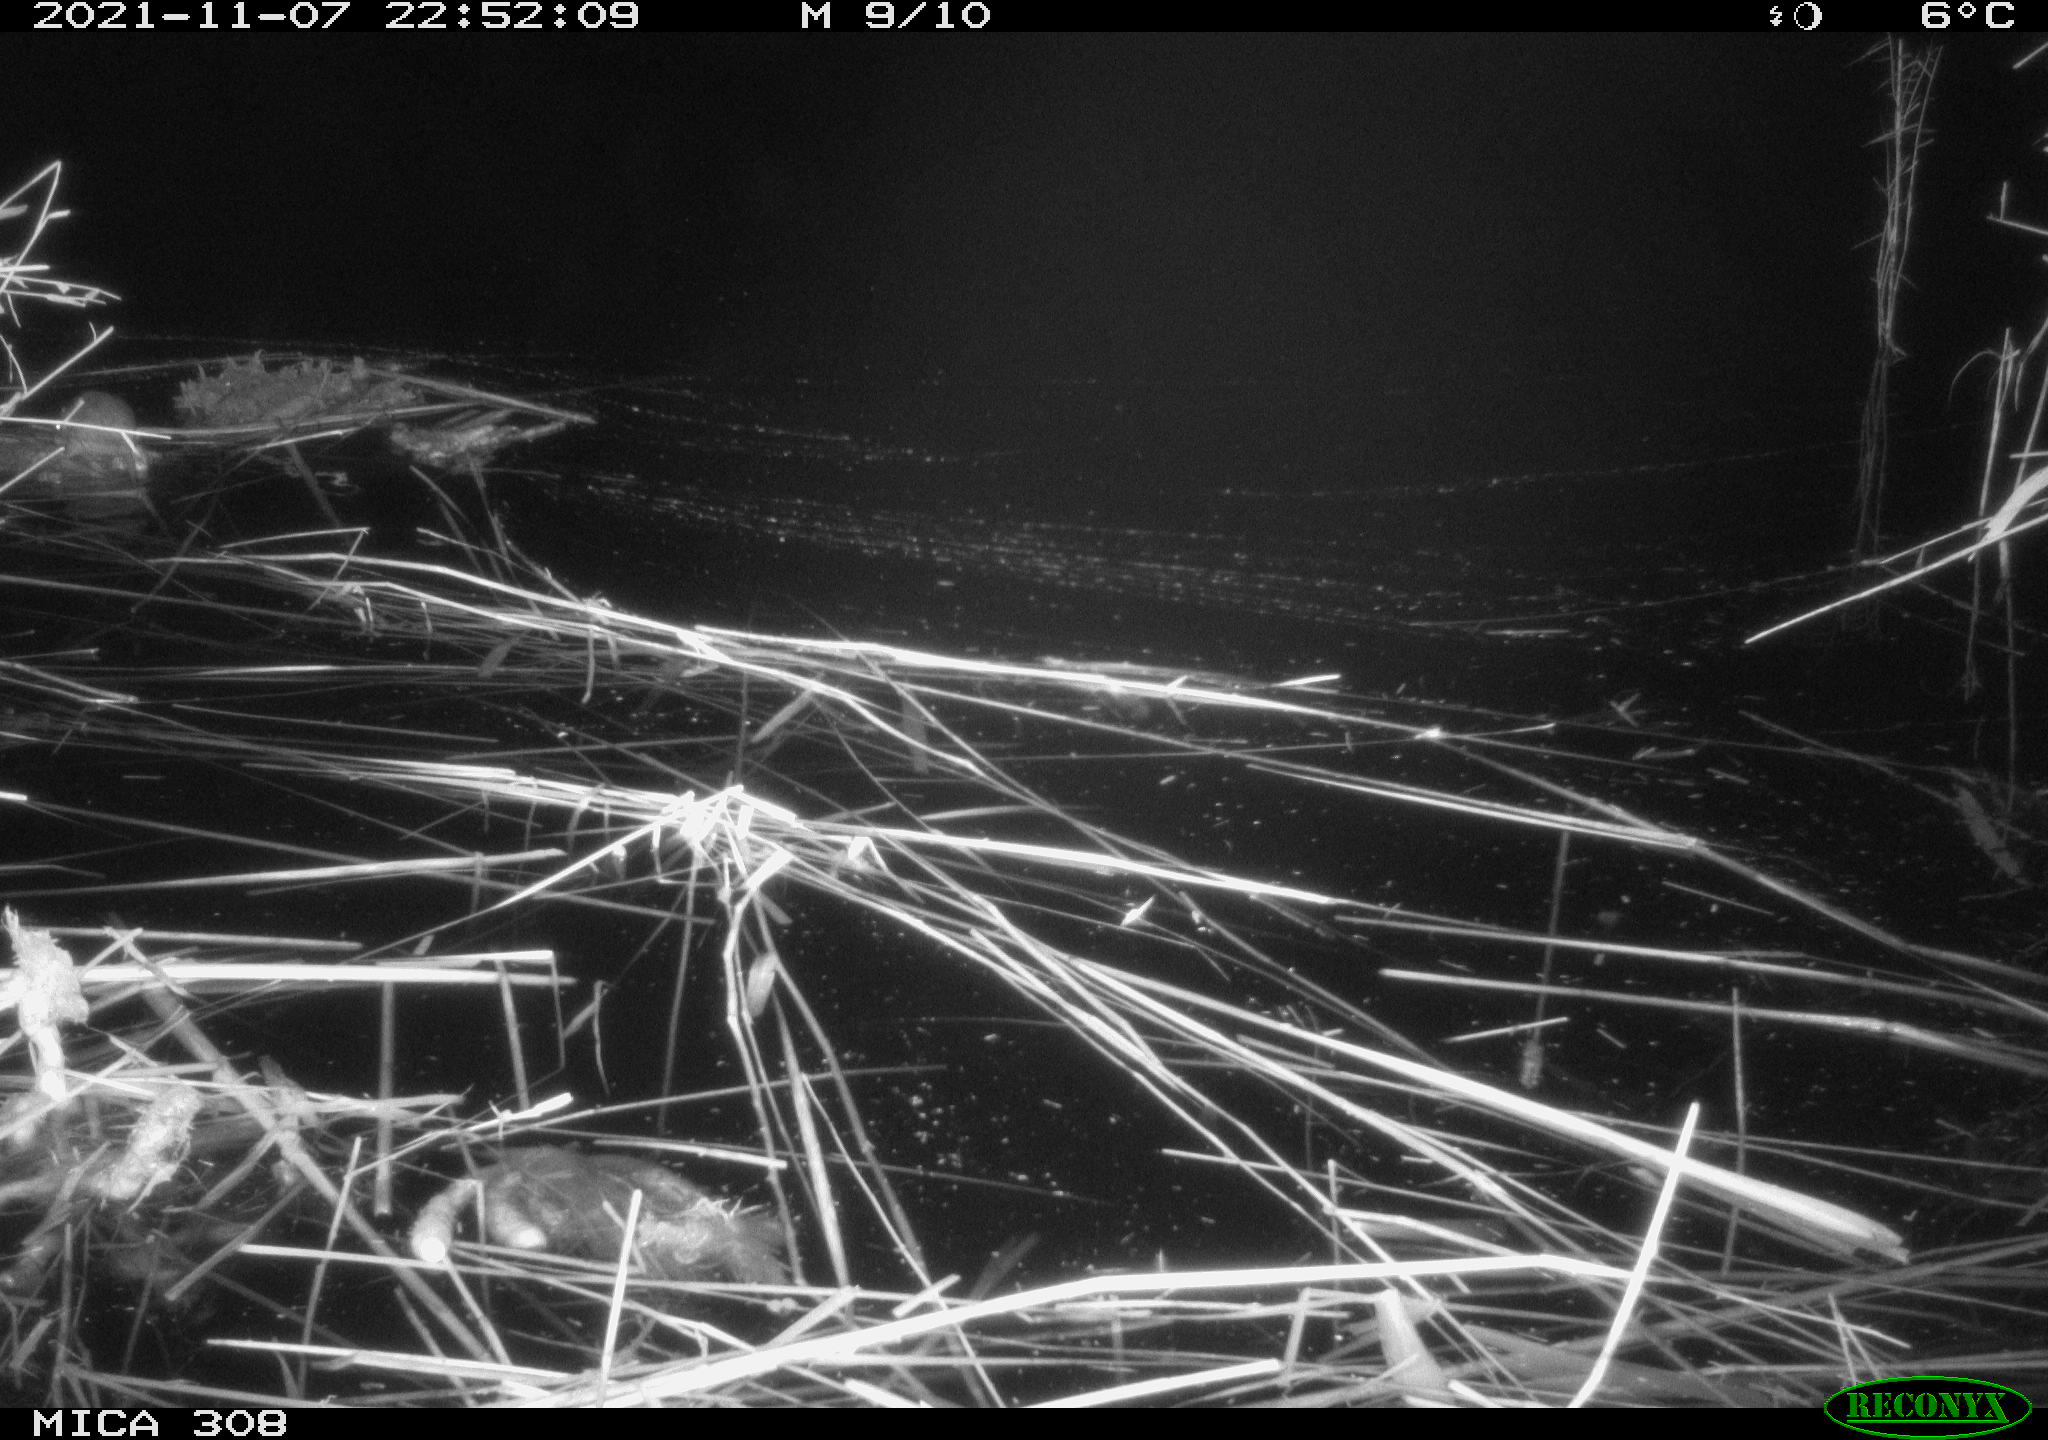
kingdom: Animalia
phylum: Chordata
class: Mammalia
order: Rodentia
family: Muridae
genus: Rattus
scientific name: Rattus norvegicus
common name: Brown rat
